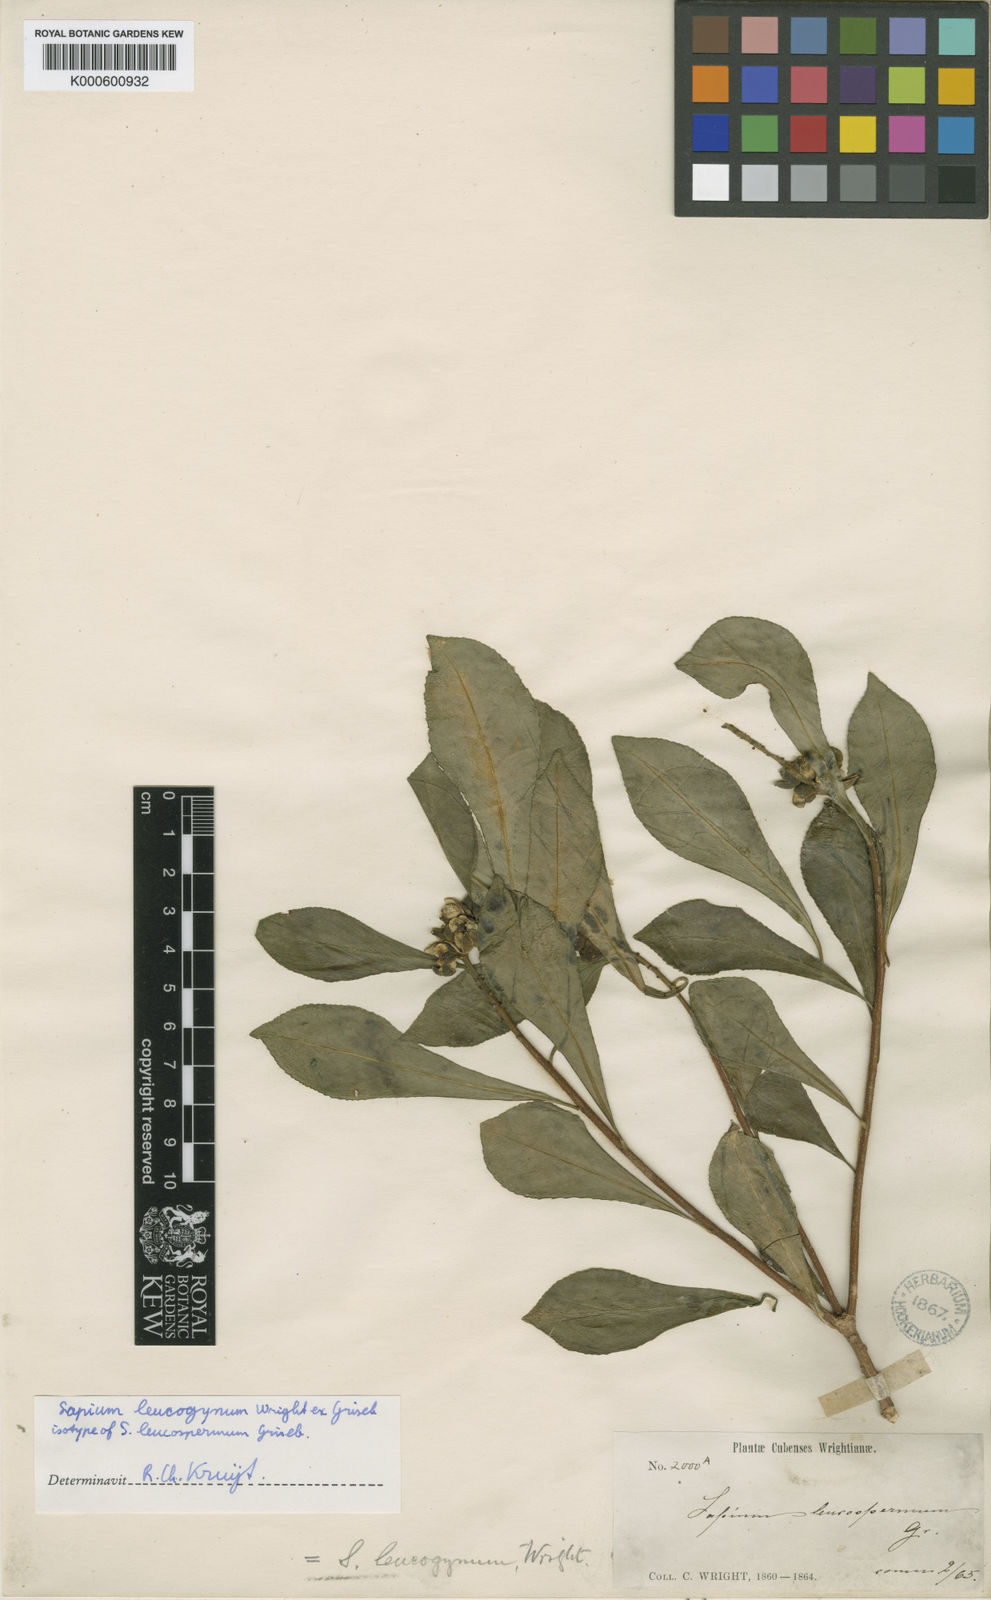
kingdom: Plantae
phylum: Tracheophyta
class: Magnoliopsida
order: Malpighiales
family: Euphorbiaceae
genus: Sapium
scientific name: Sapium leucogynum
